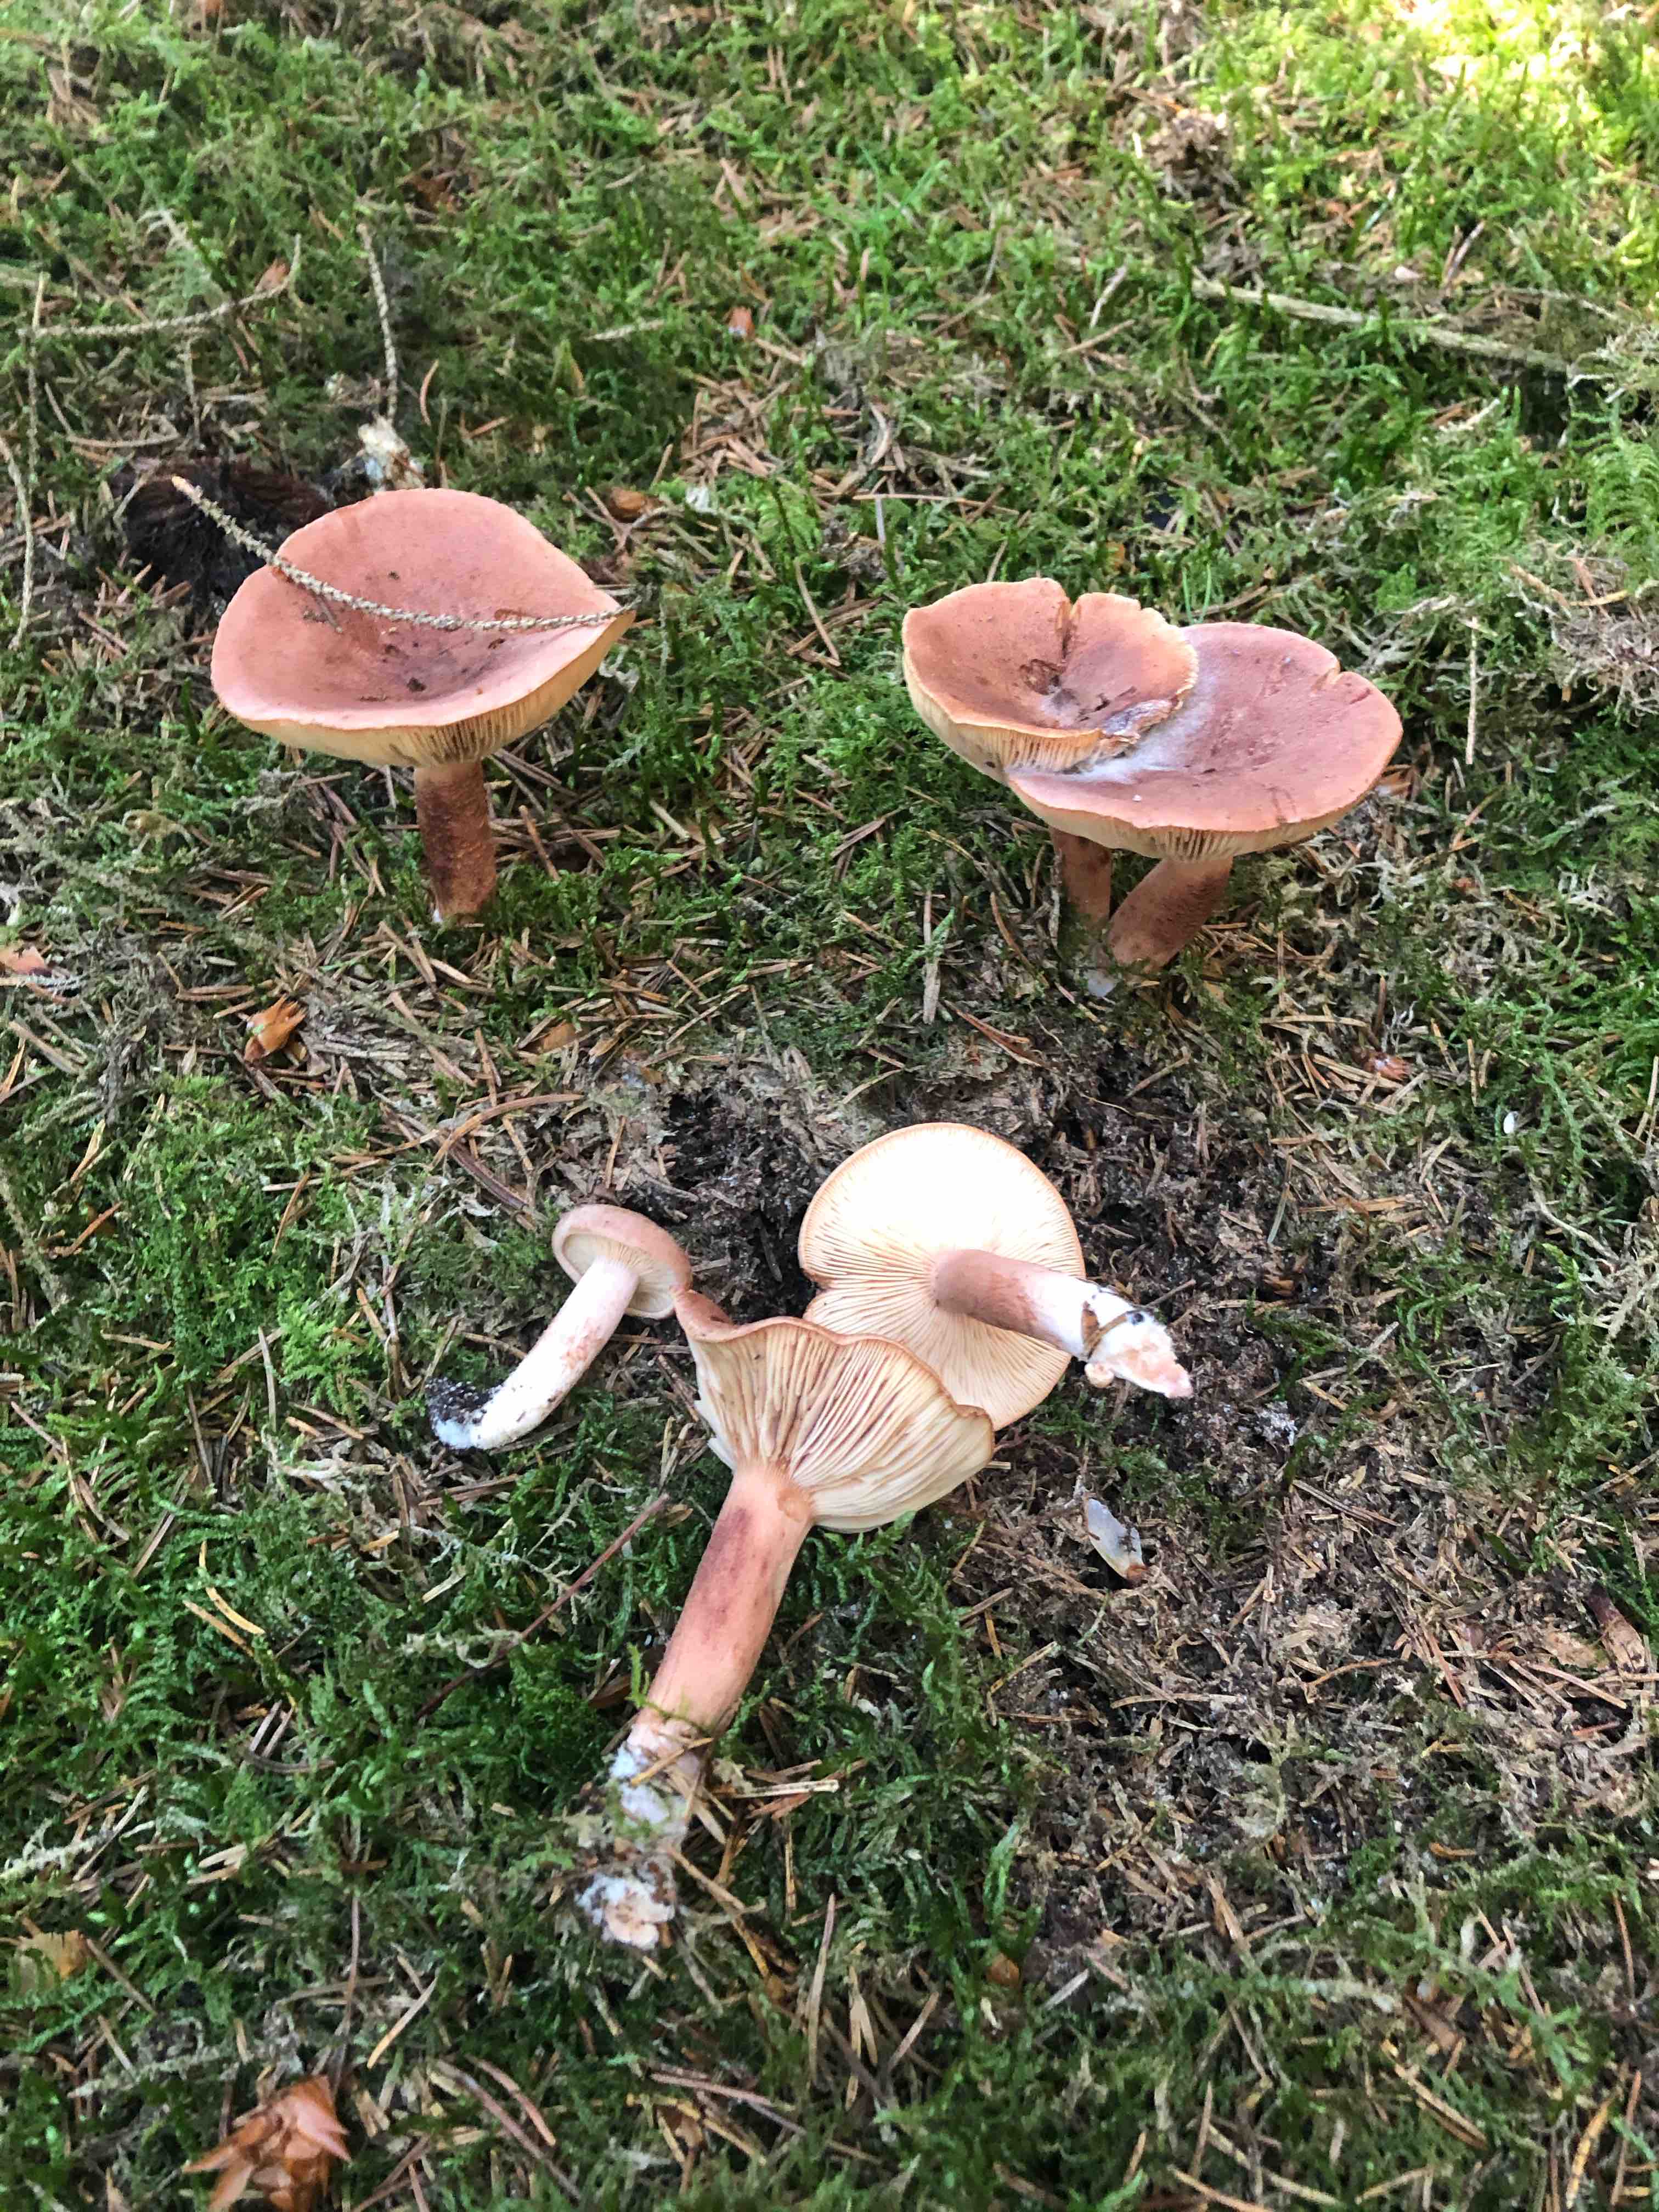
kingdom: Fungi
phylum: Basidiomycota
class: Agaricomycetes
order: Russulales
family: Russulaceae
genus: Lactarius
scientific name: Lactarius rufus
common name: rødbrun mælkehat
